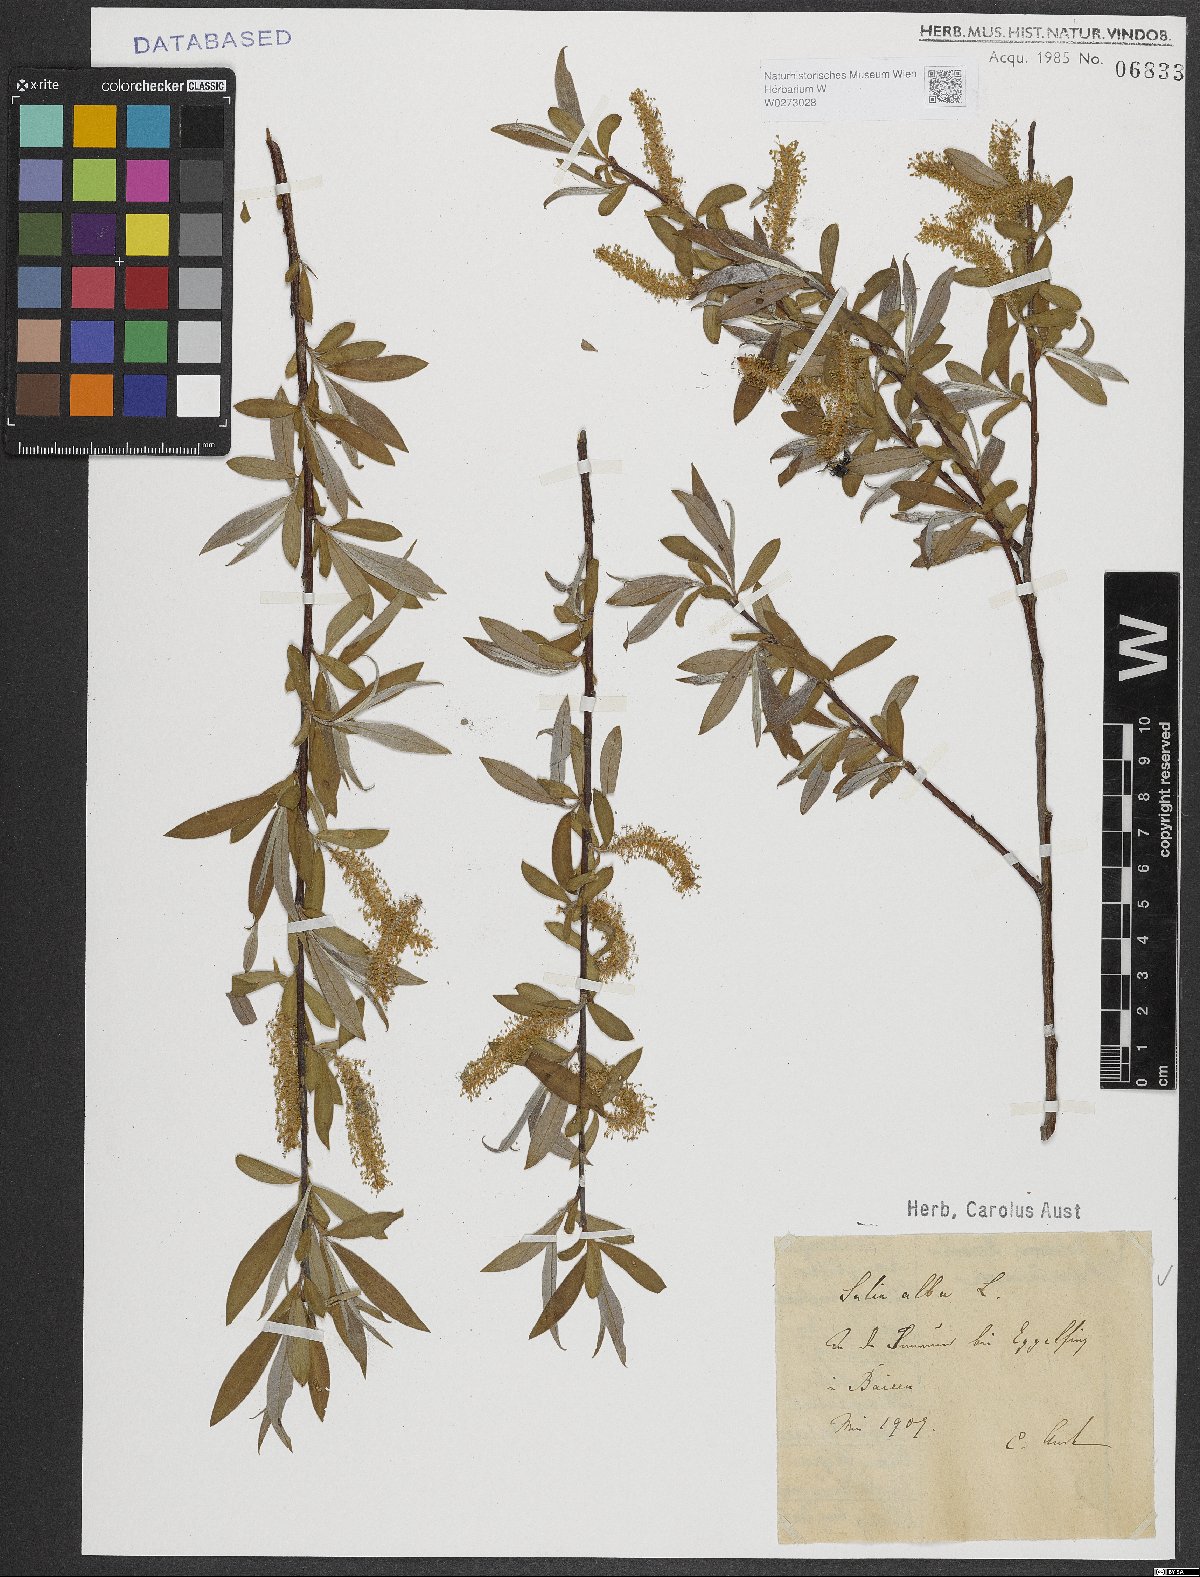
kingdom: Plantae
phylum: Tracheophyta
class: Magnoliopsida
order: Malpighiales
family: Salicaceae
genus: Salix
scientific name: Salix alba
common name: White willow
